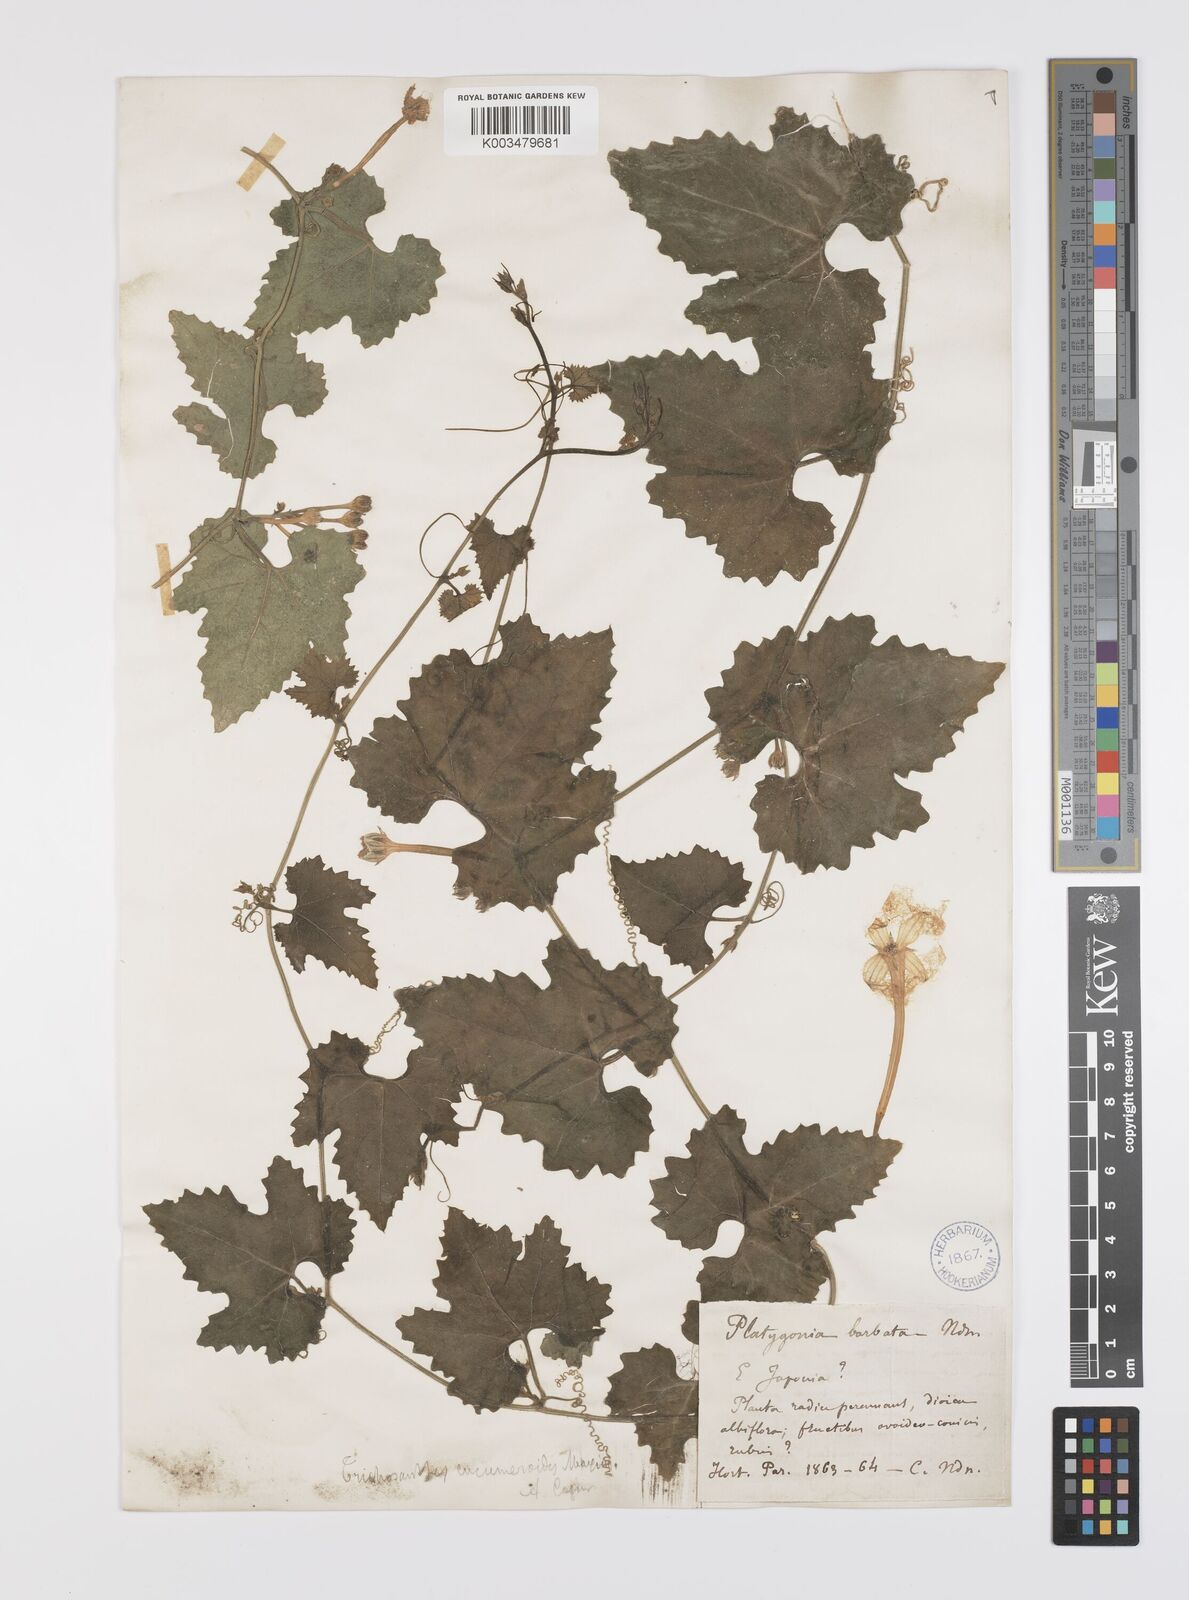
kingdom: Plantae
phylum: Tracheophyta
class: Magnoliopsida
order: Cucurbitales
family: Cucurbitaceae
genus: Trichosanthes
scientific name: Trichosanthes ovigera
